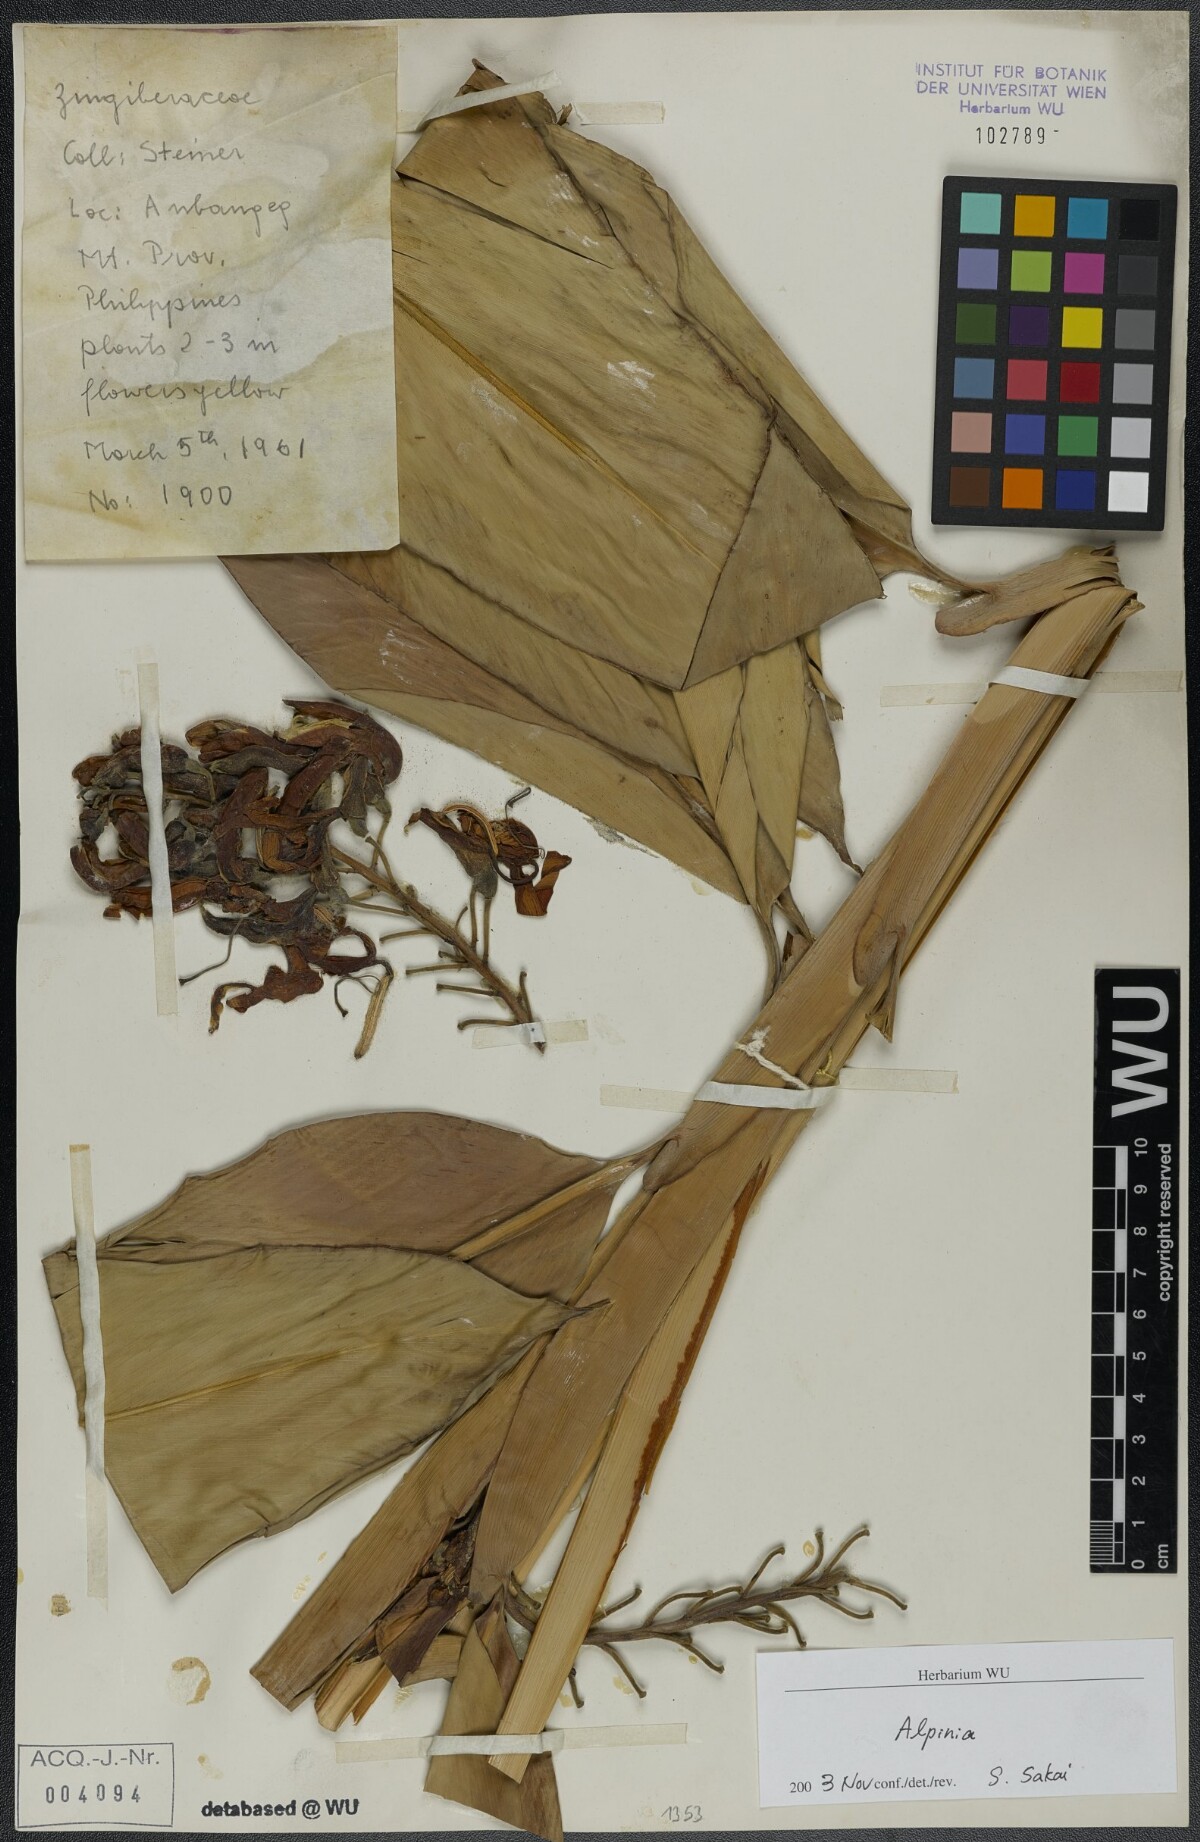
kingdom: Plantae
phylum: Tracheophyta
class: Liliopsida
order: Zingiberales
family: Zingiberaceae
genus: Alpinia
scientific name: Alpinia
